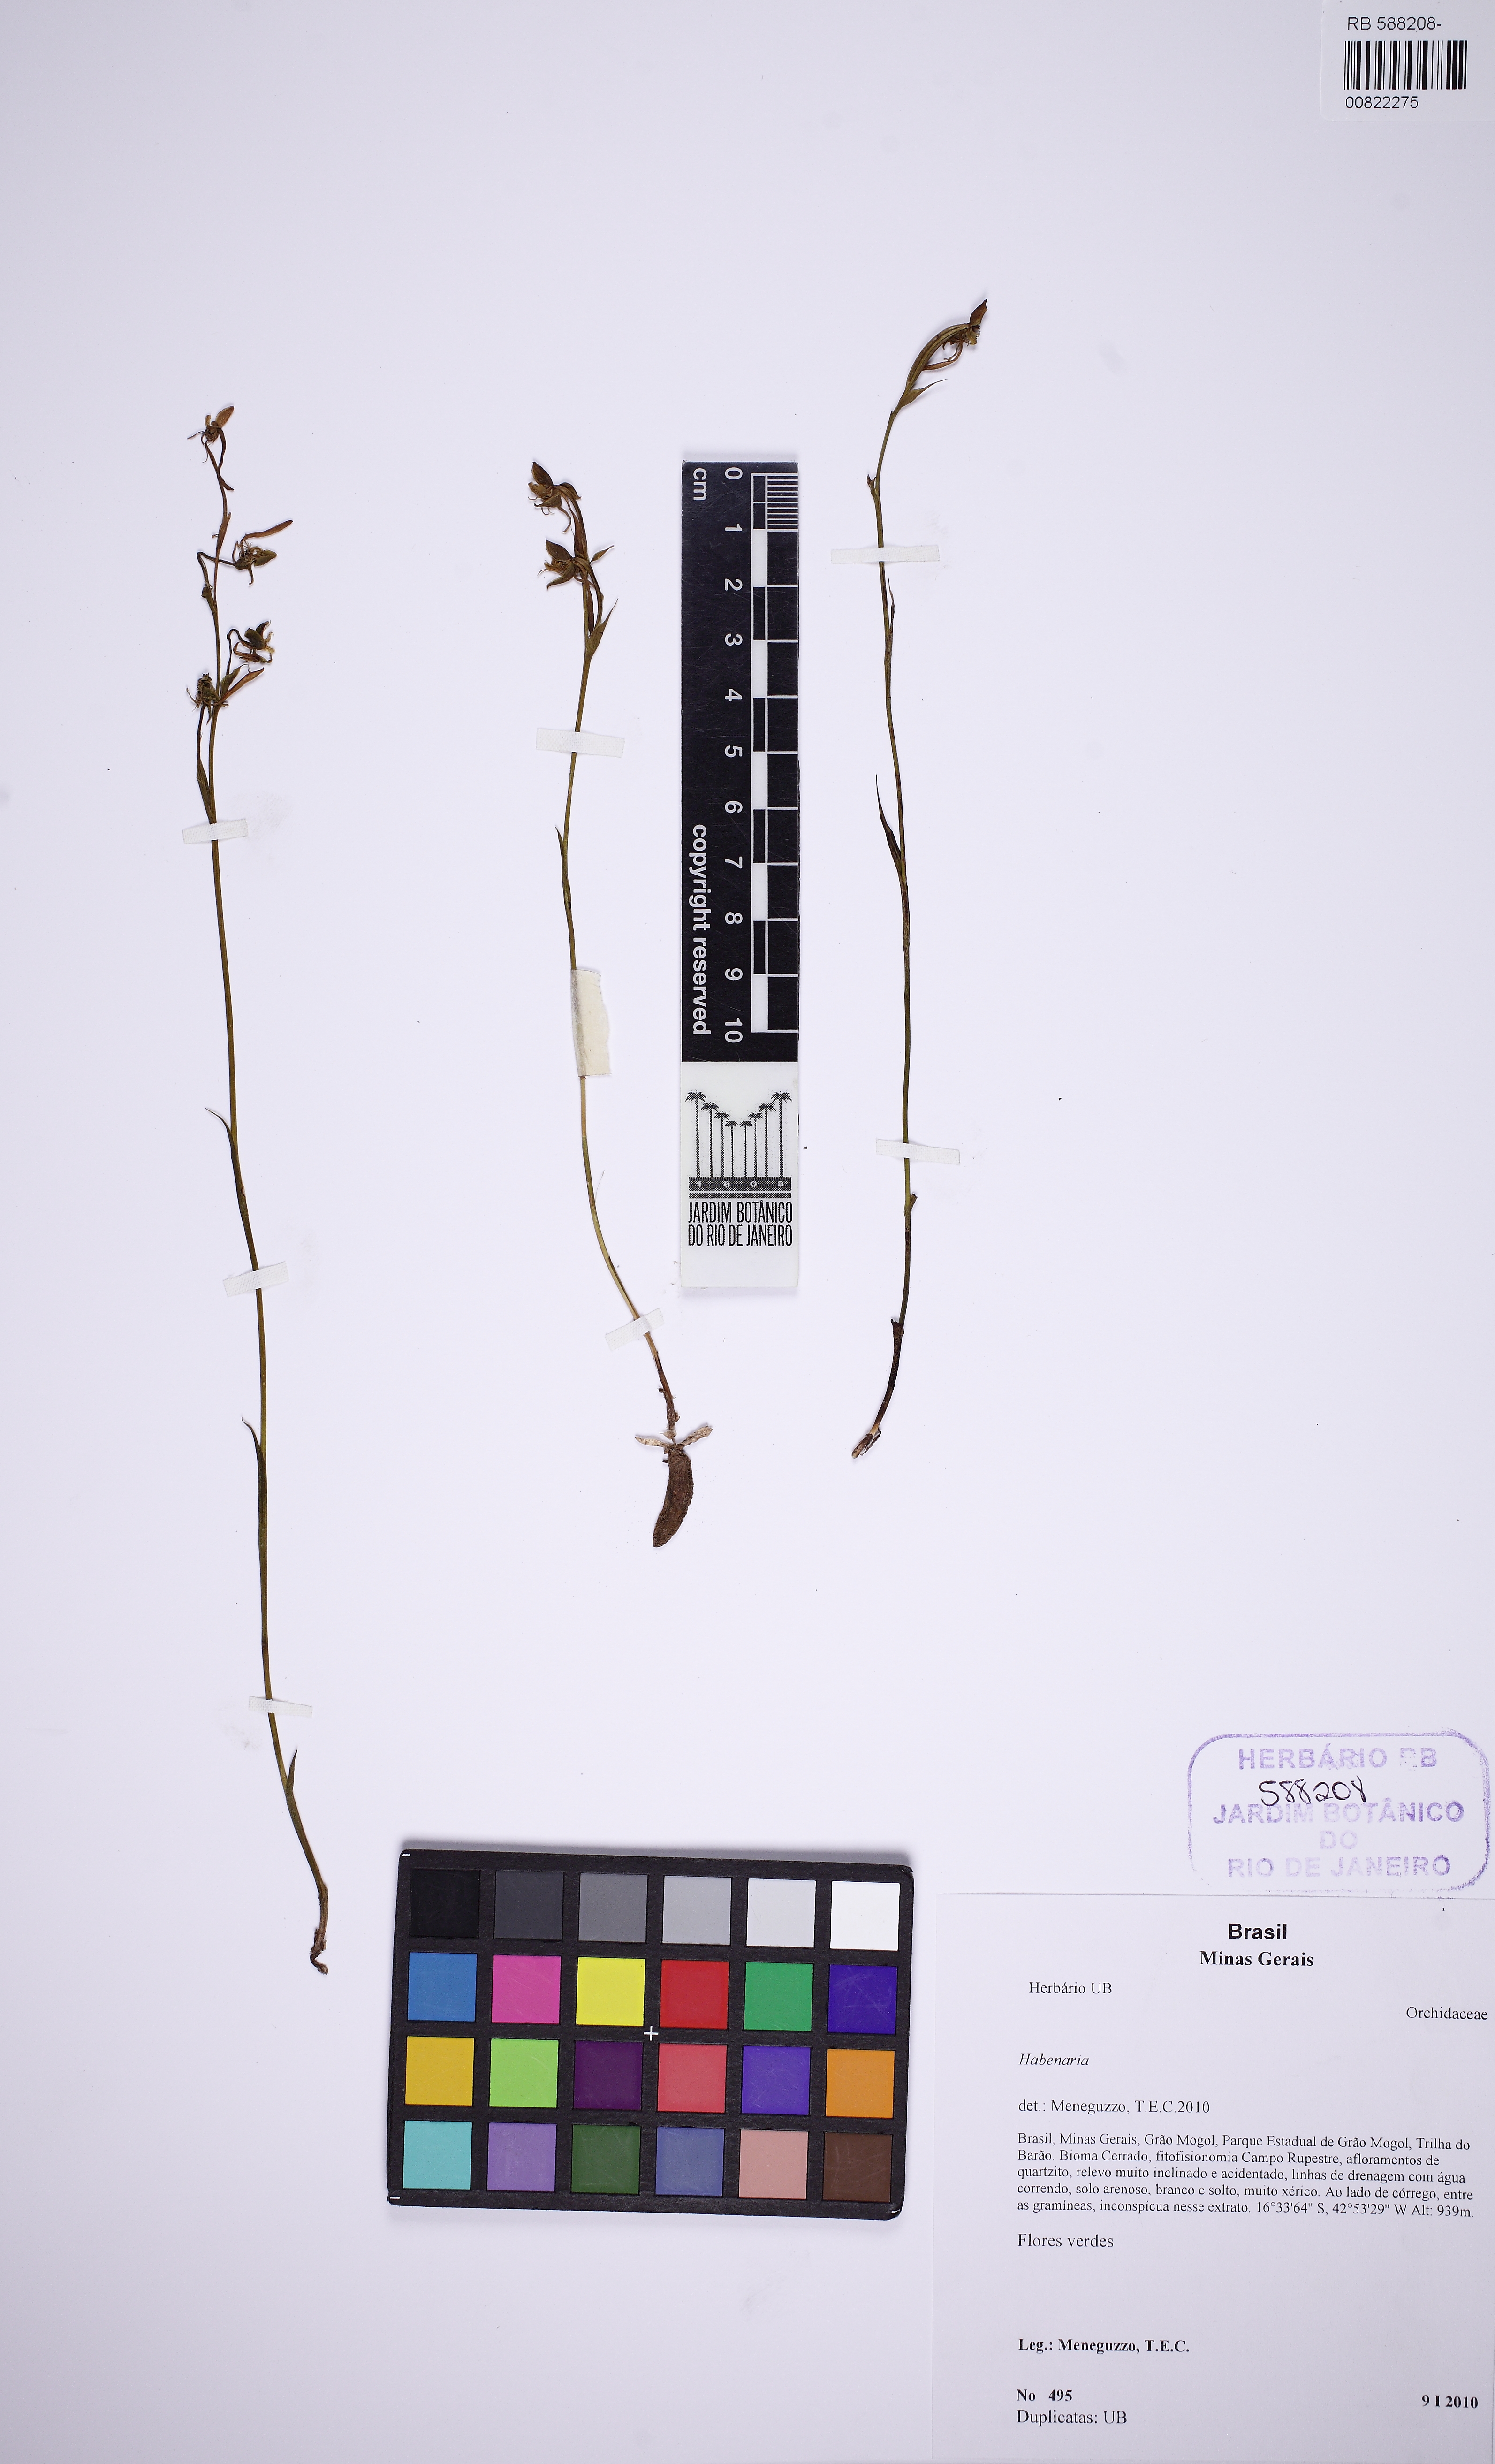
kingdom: Plantae
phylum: Tracheophyta
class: Liliopsida
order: Asparagales
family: Orchidaceae
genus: Habenaria
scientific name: Habenaria
